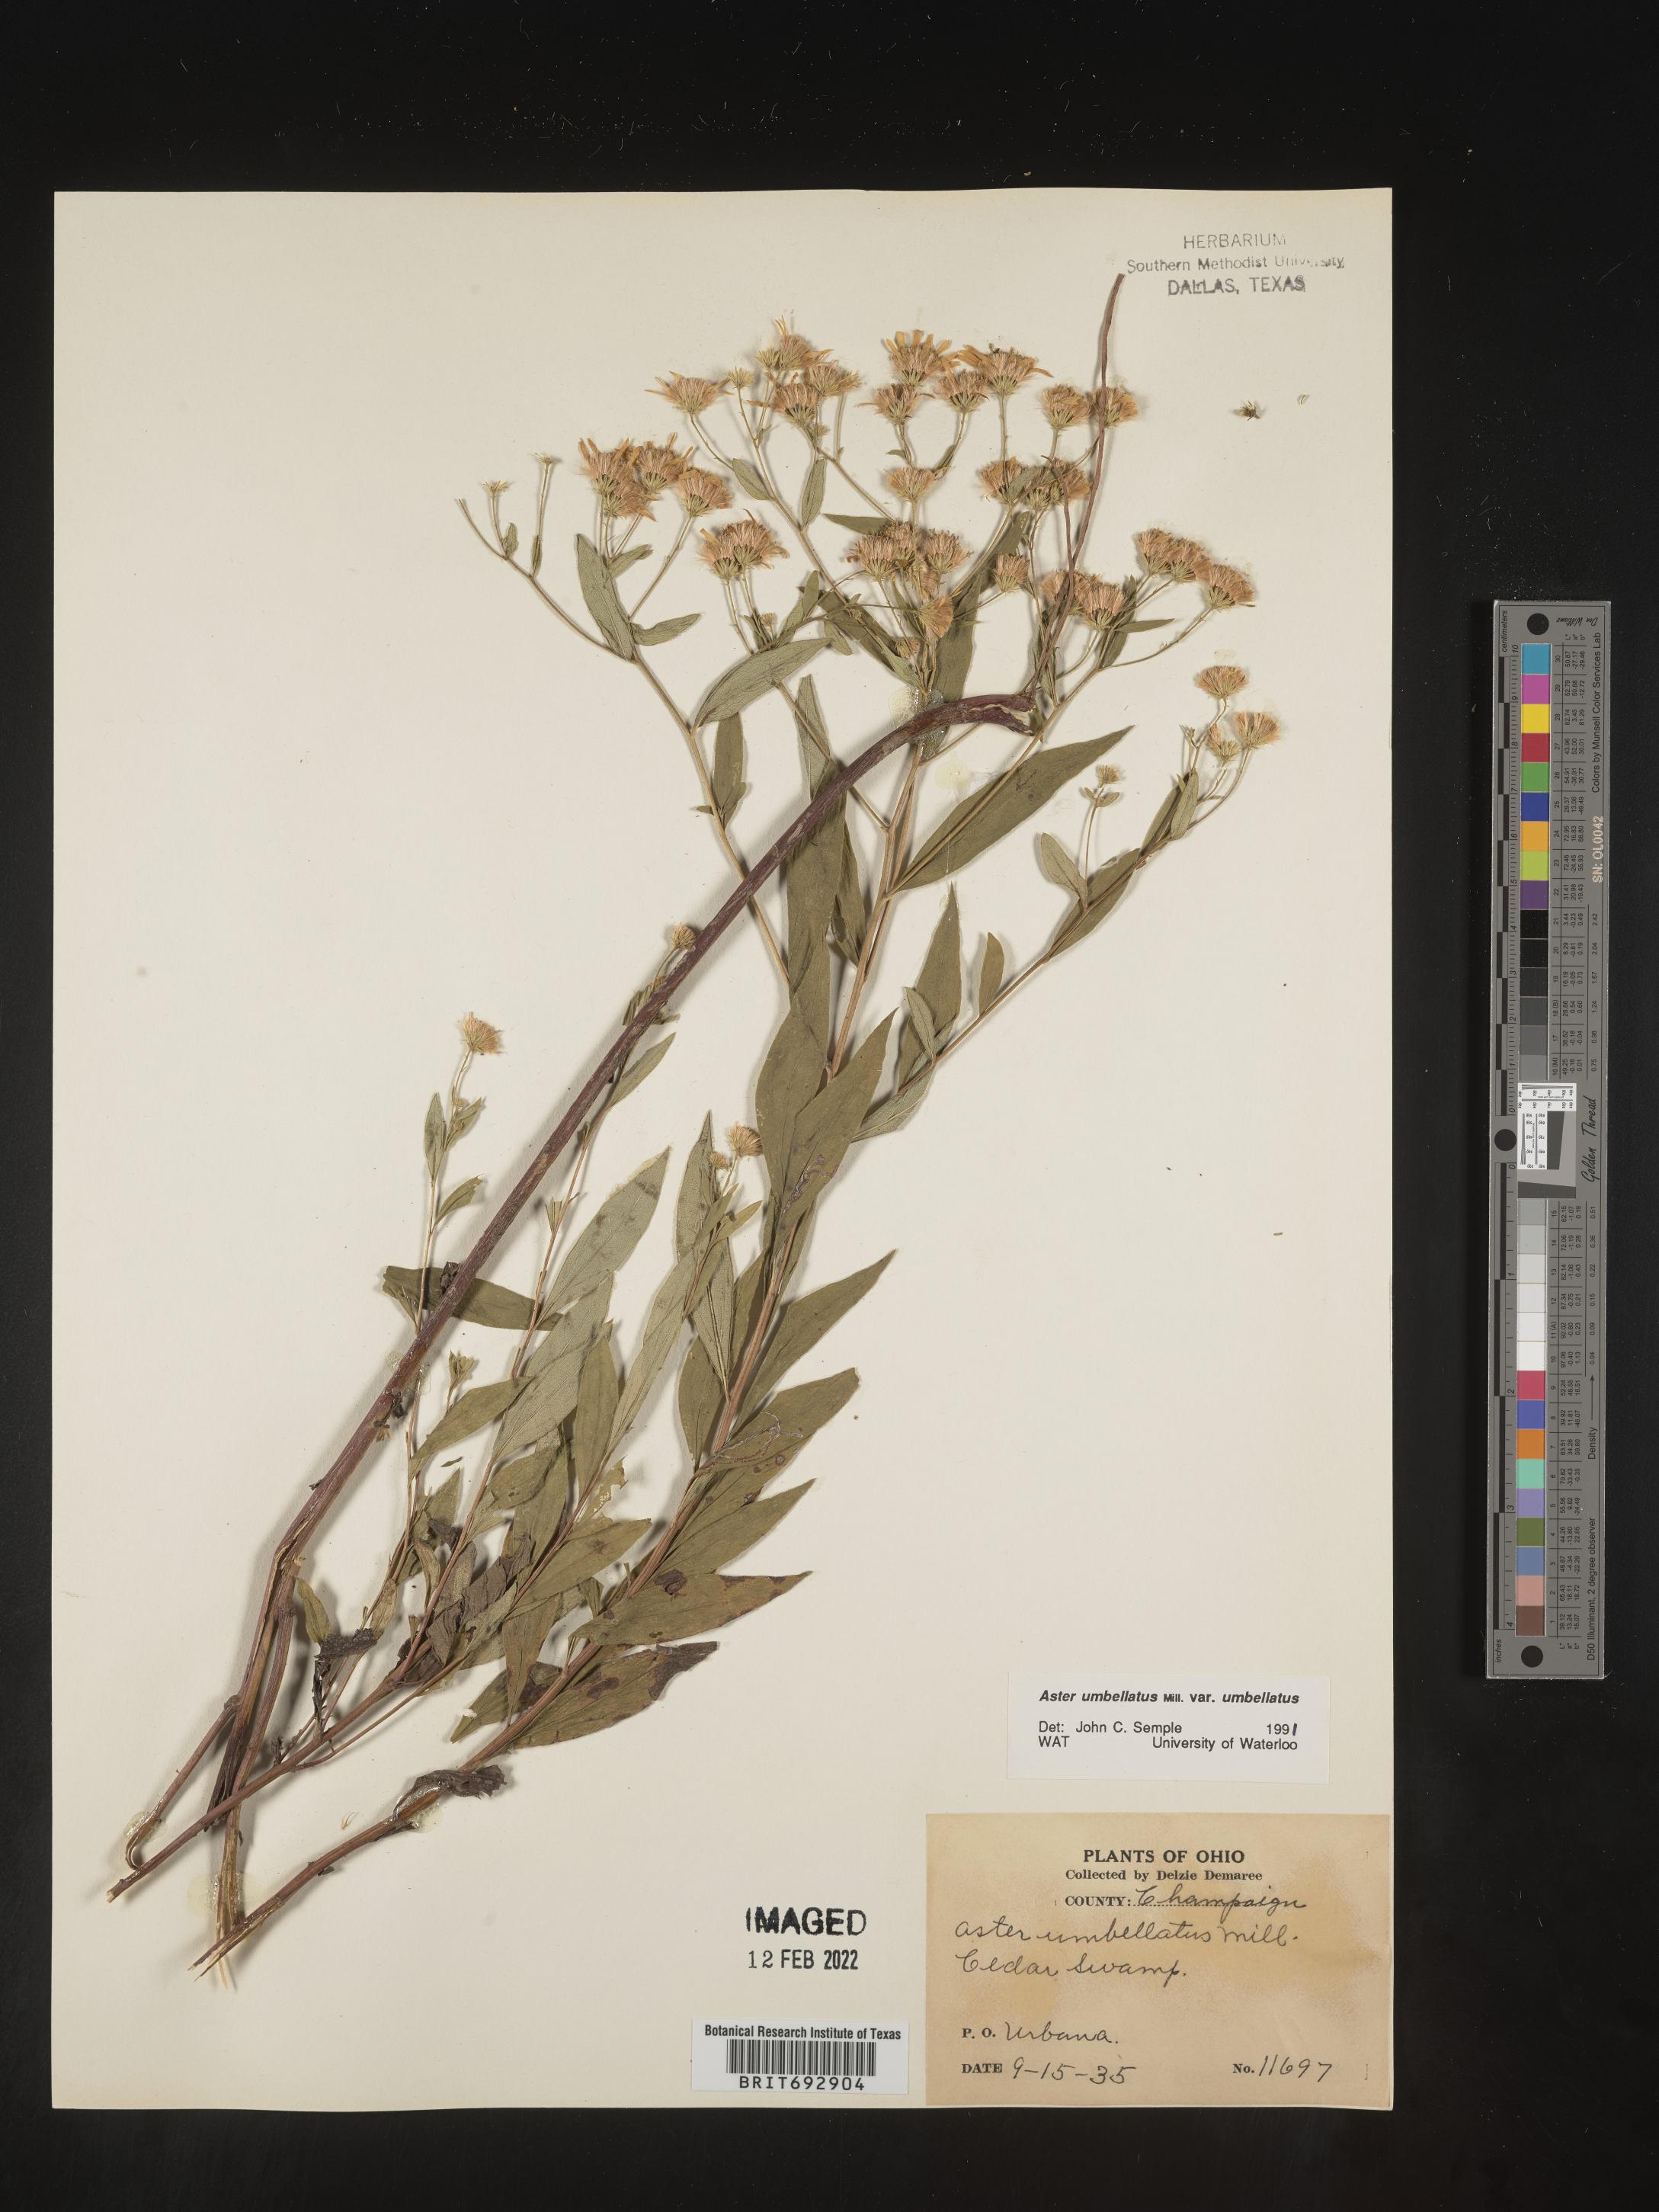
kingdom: Plantae
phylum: Tracheophyta
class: Magnoliopsida
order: Asterales
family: Asteraceae
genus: Doellingeria
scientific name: Doellingeria umbellata
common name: Flat-top white aster
